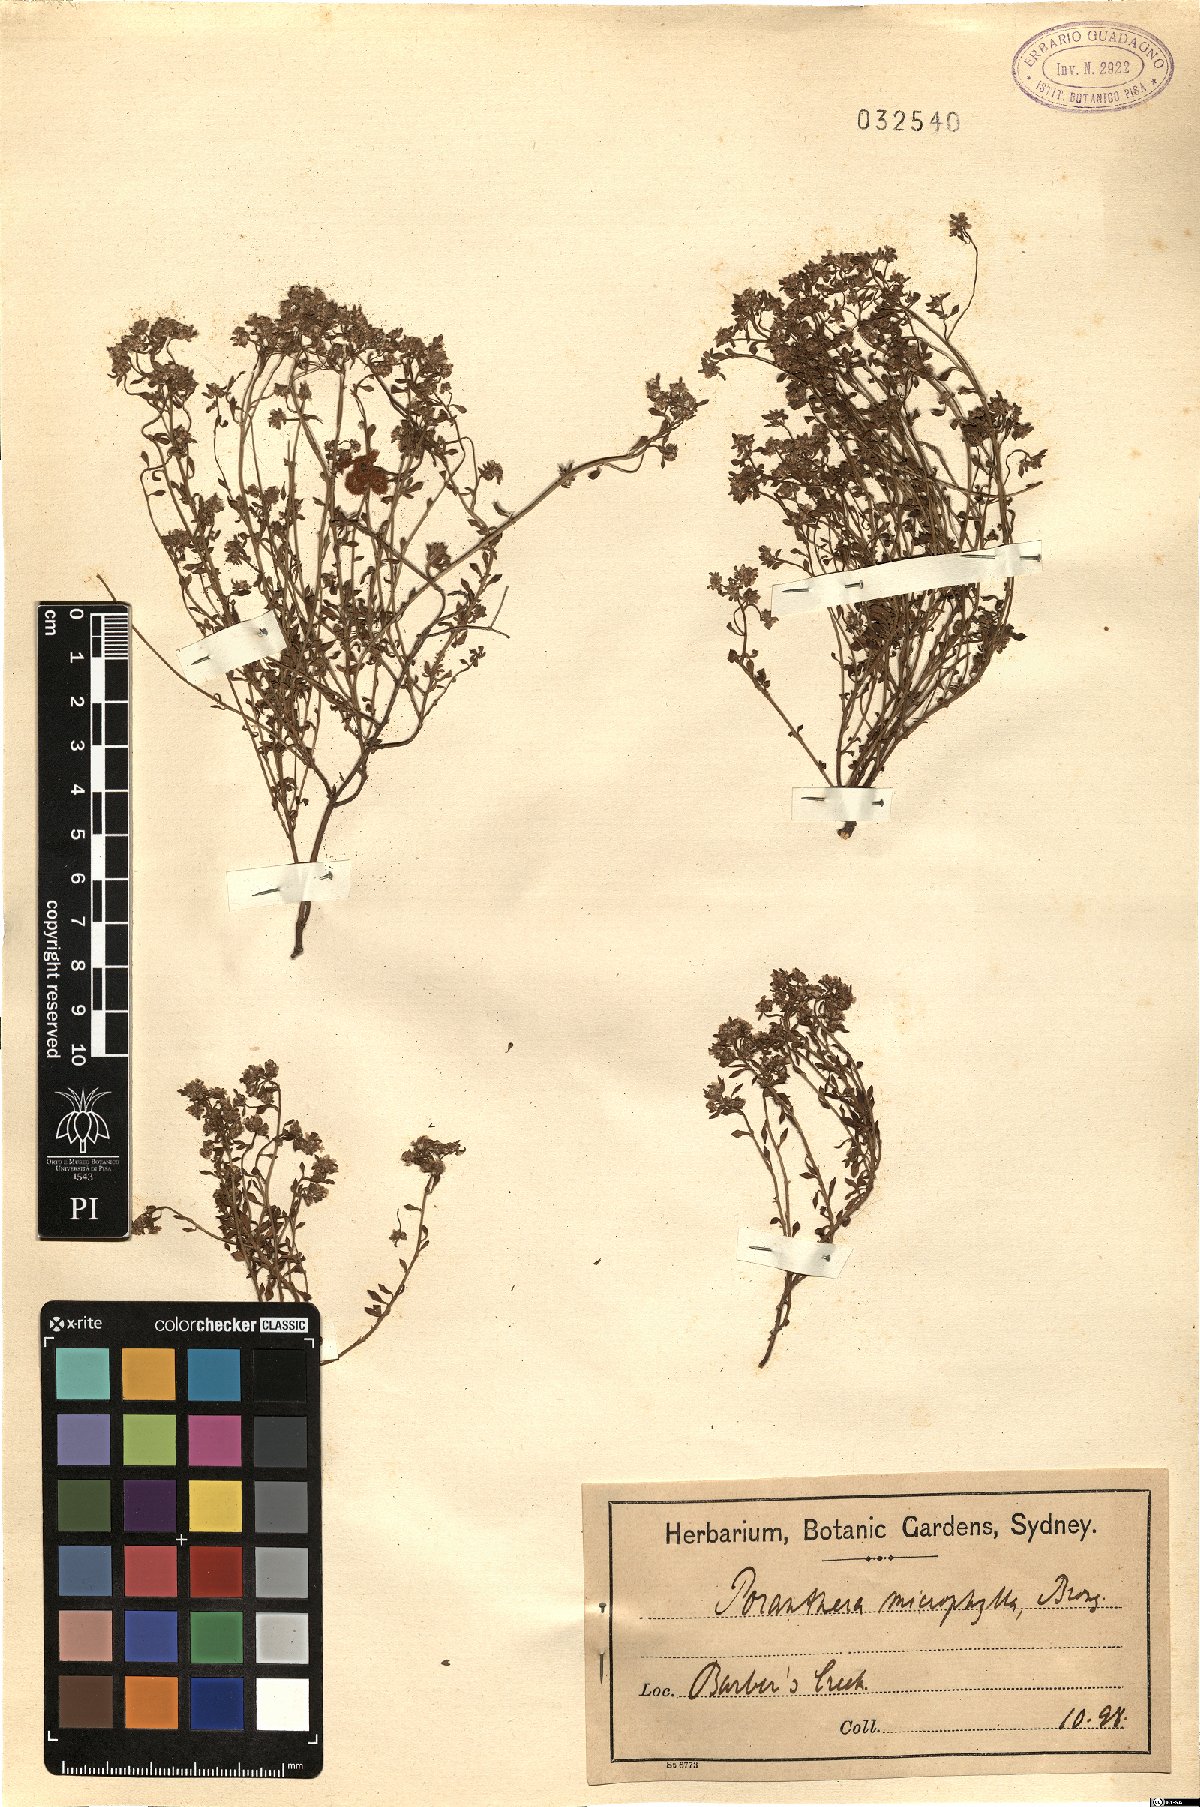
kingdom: Plantae
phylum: Tracheophyta
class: Magnoliopsida
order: Malpighiales
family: Phyllanthaceae
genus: Poranthera
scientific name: Poranthera microphylla
